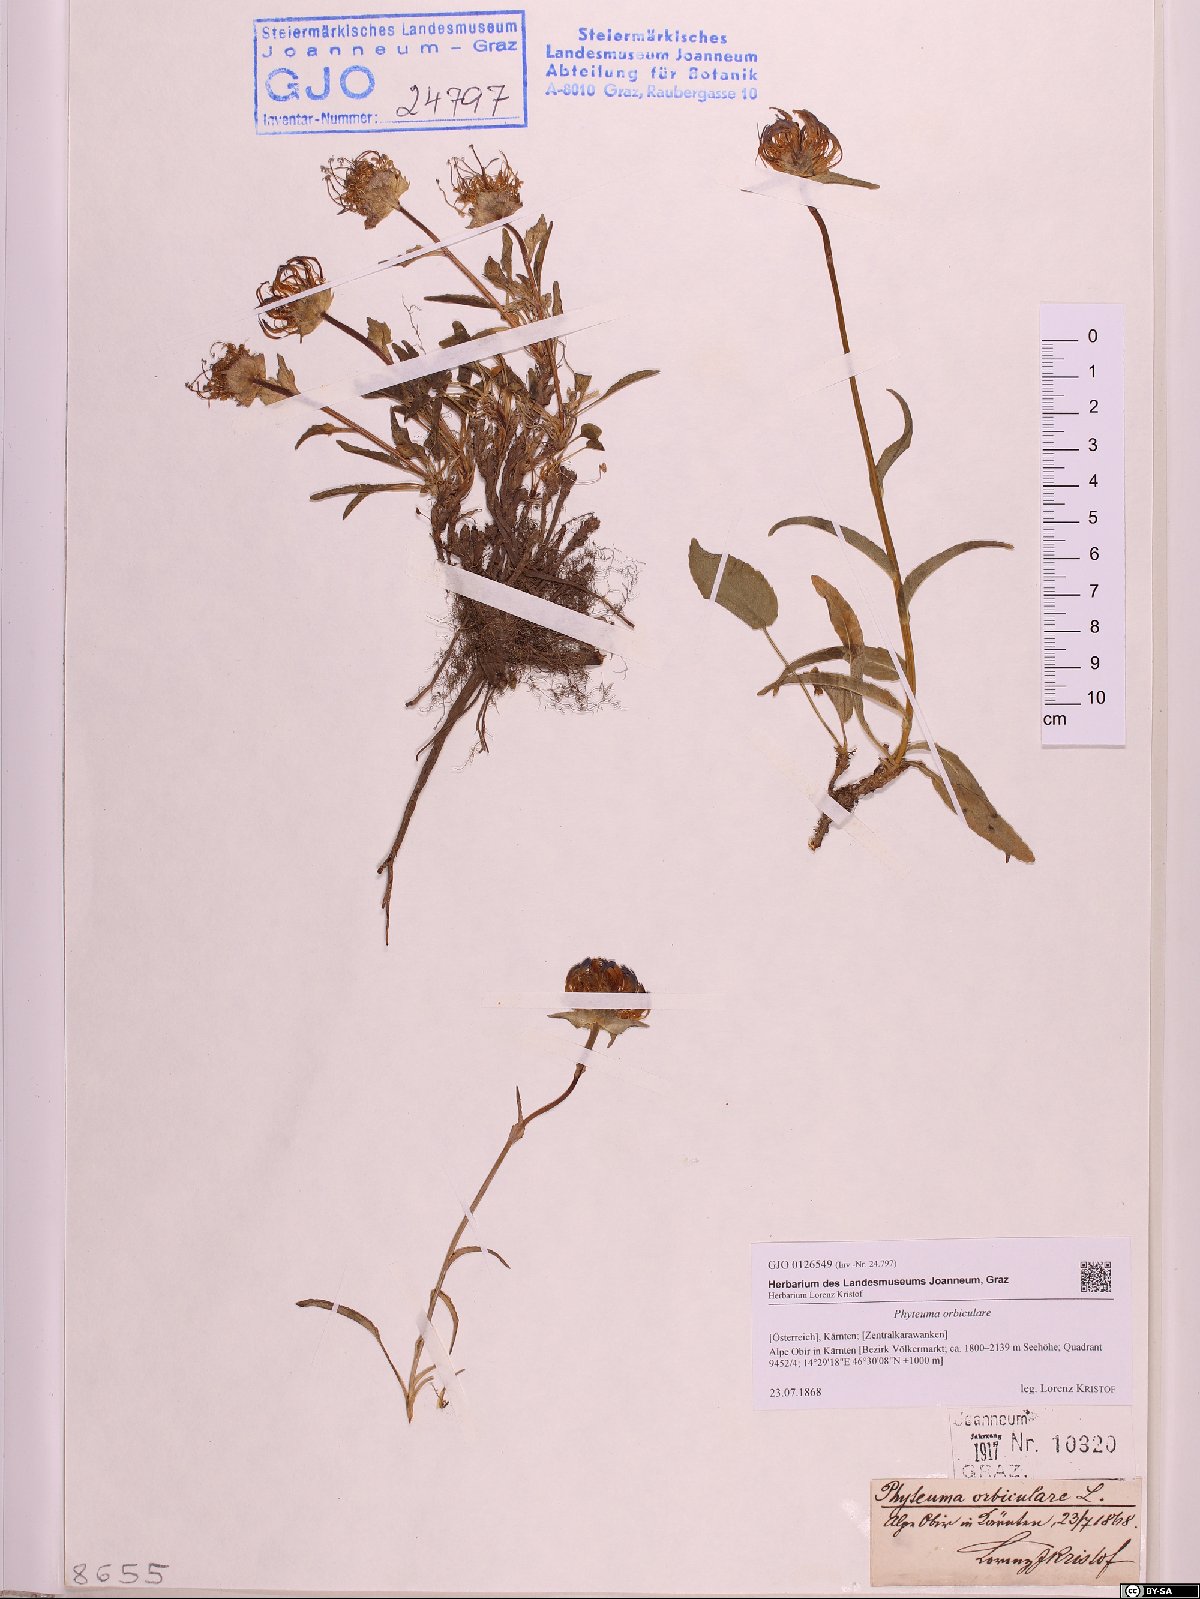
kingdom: Plantae
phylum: Tracheophyta
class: Magnoliopsida
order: Asterales
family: Campanulaceae
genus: Phyteuma
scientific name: Phyteuma orbiculare
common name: Round-headed rampion
